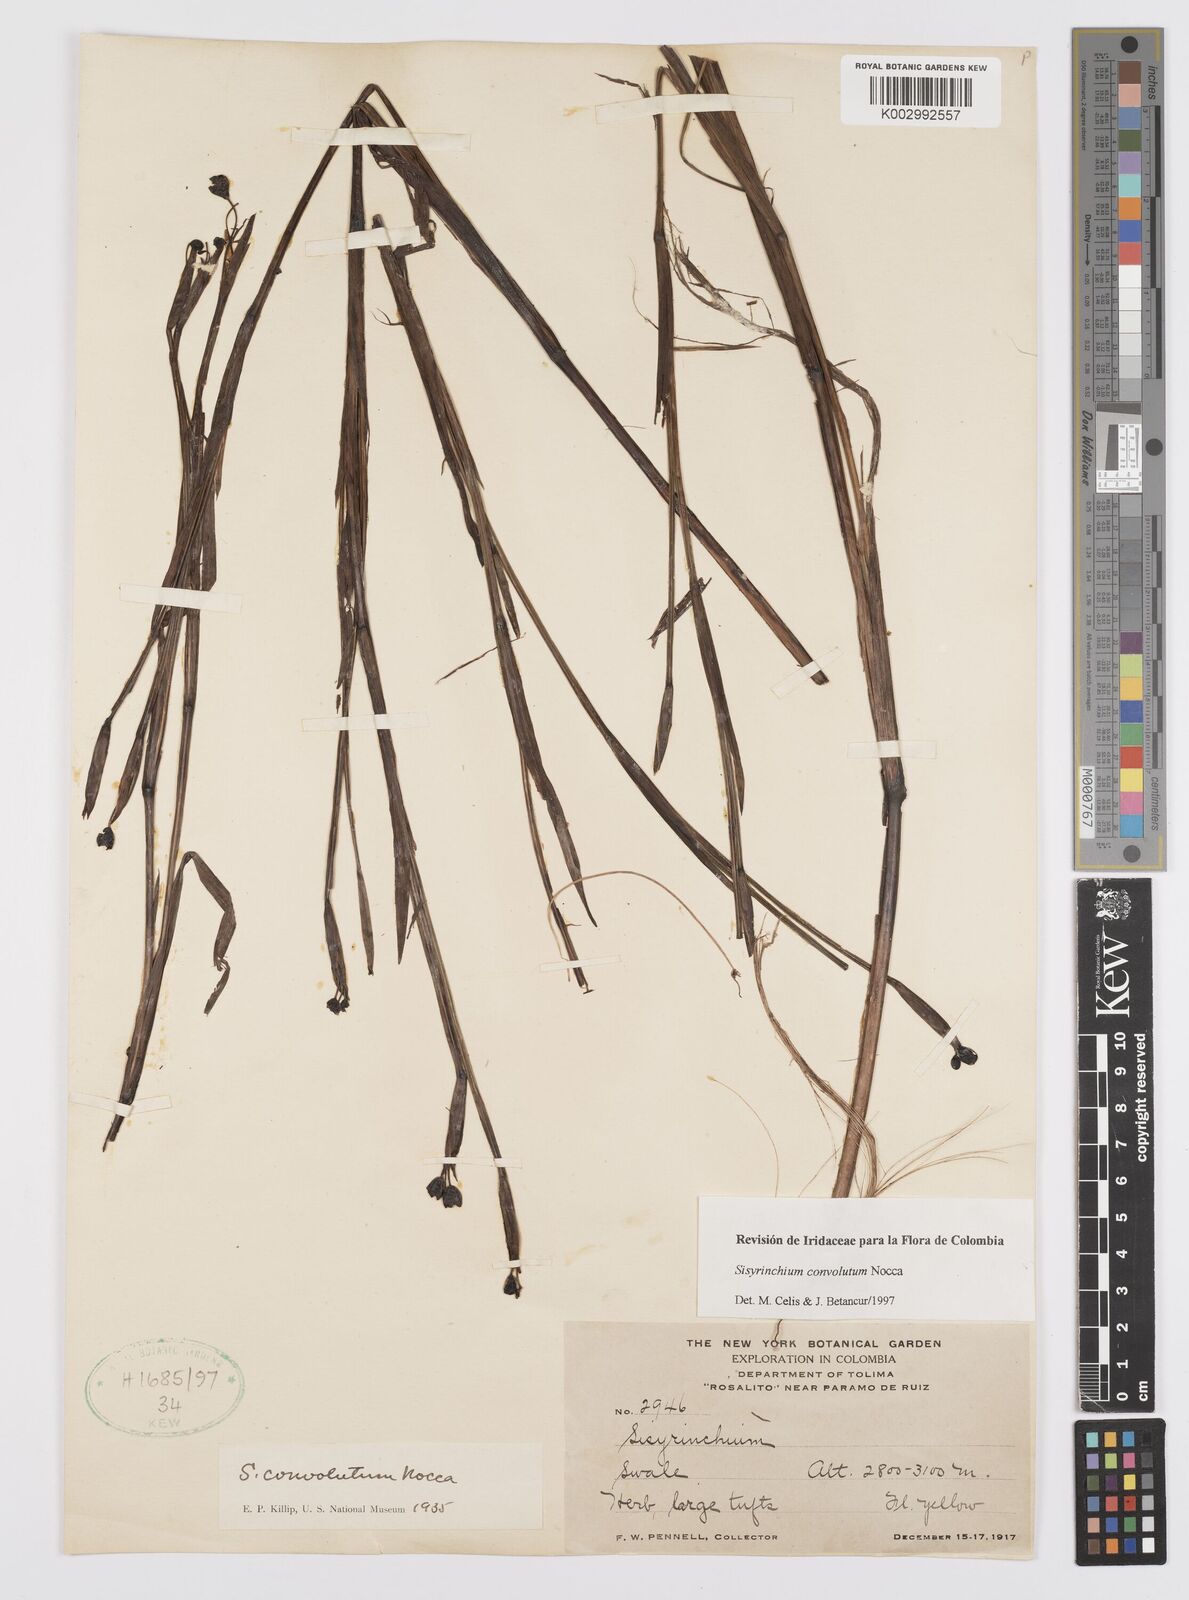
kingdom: Plantae
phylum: Tracheophyta
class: Liliopsida
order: Asparagales
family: Iridaceae
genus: Sisyrinchium
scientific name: Sisyrinchium convolutum
